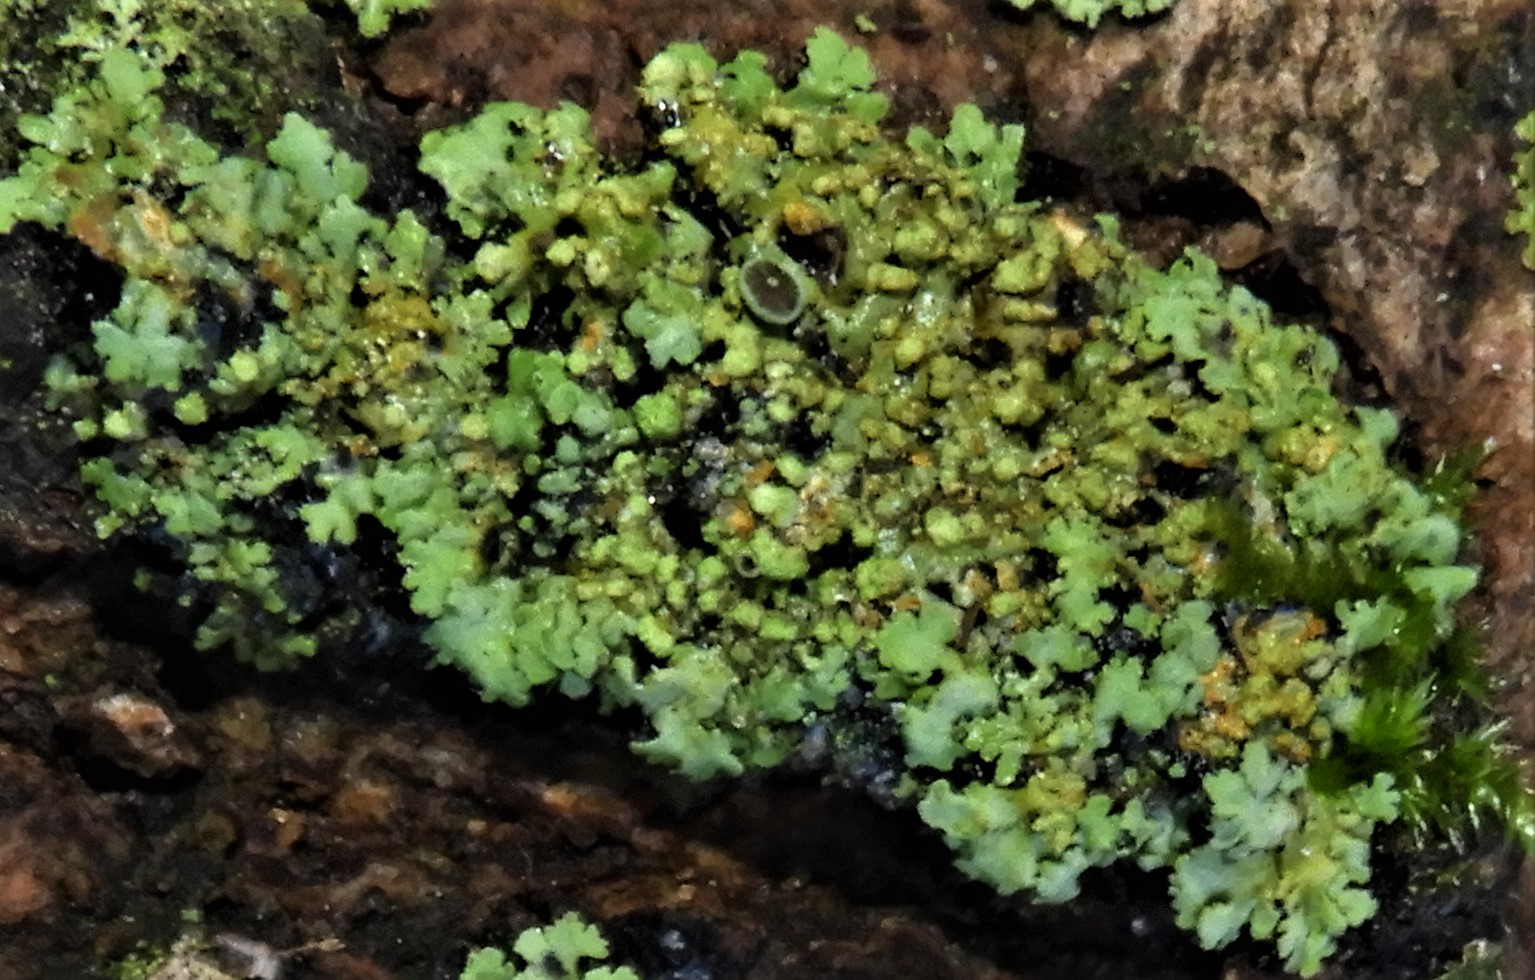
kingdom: Fungi
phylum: Ascomycota
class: Lecanoromycetes
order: Caliciales
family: Physciaceae
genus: Phaeophyscia
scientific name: Phaeophyscia orbicularis
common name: grågrøn rosetlav
